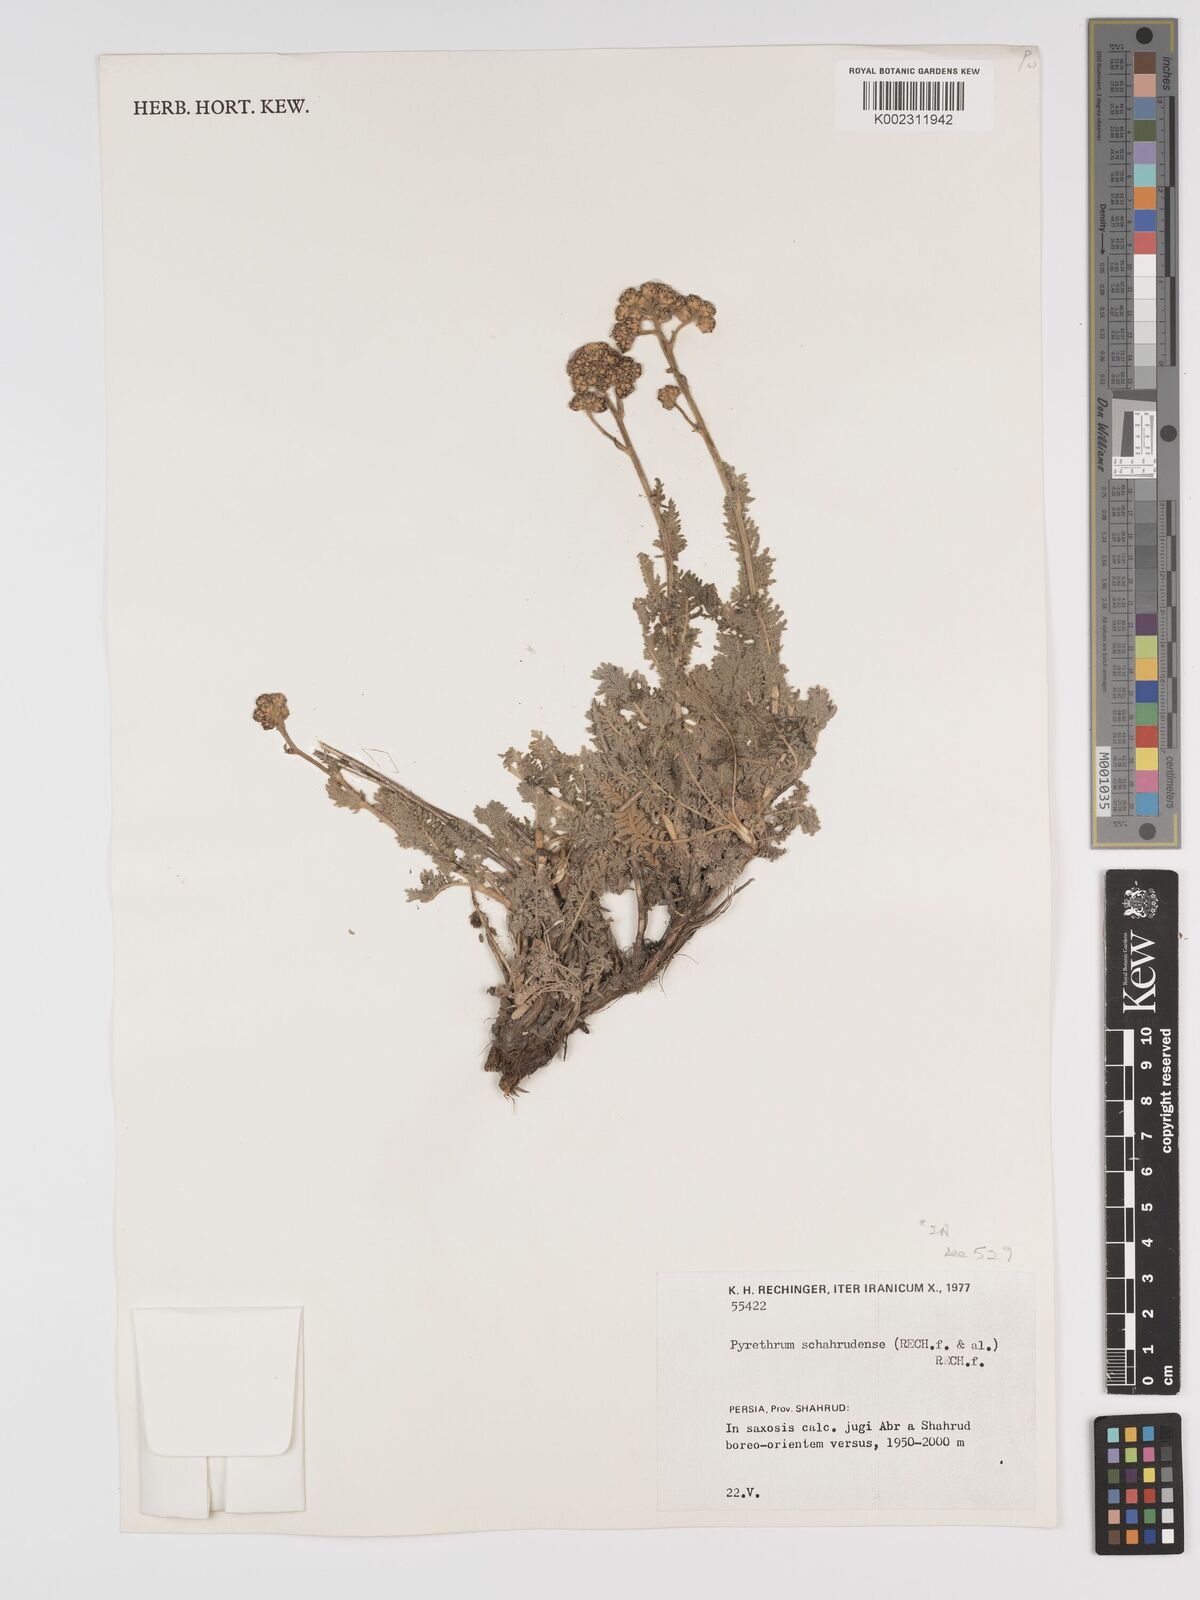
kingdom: Plantae
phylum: Tracheophyta
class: Magnoliopsida
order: Asterales
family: Asteraceae
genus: Tanacetum
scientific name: Tanacetum polycephalum
